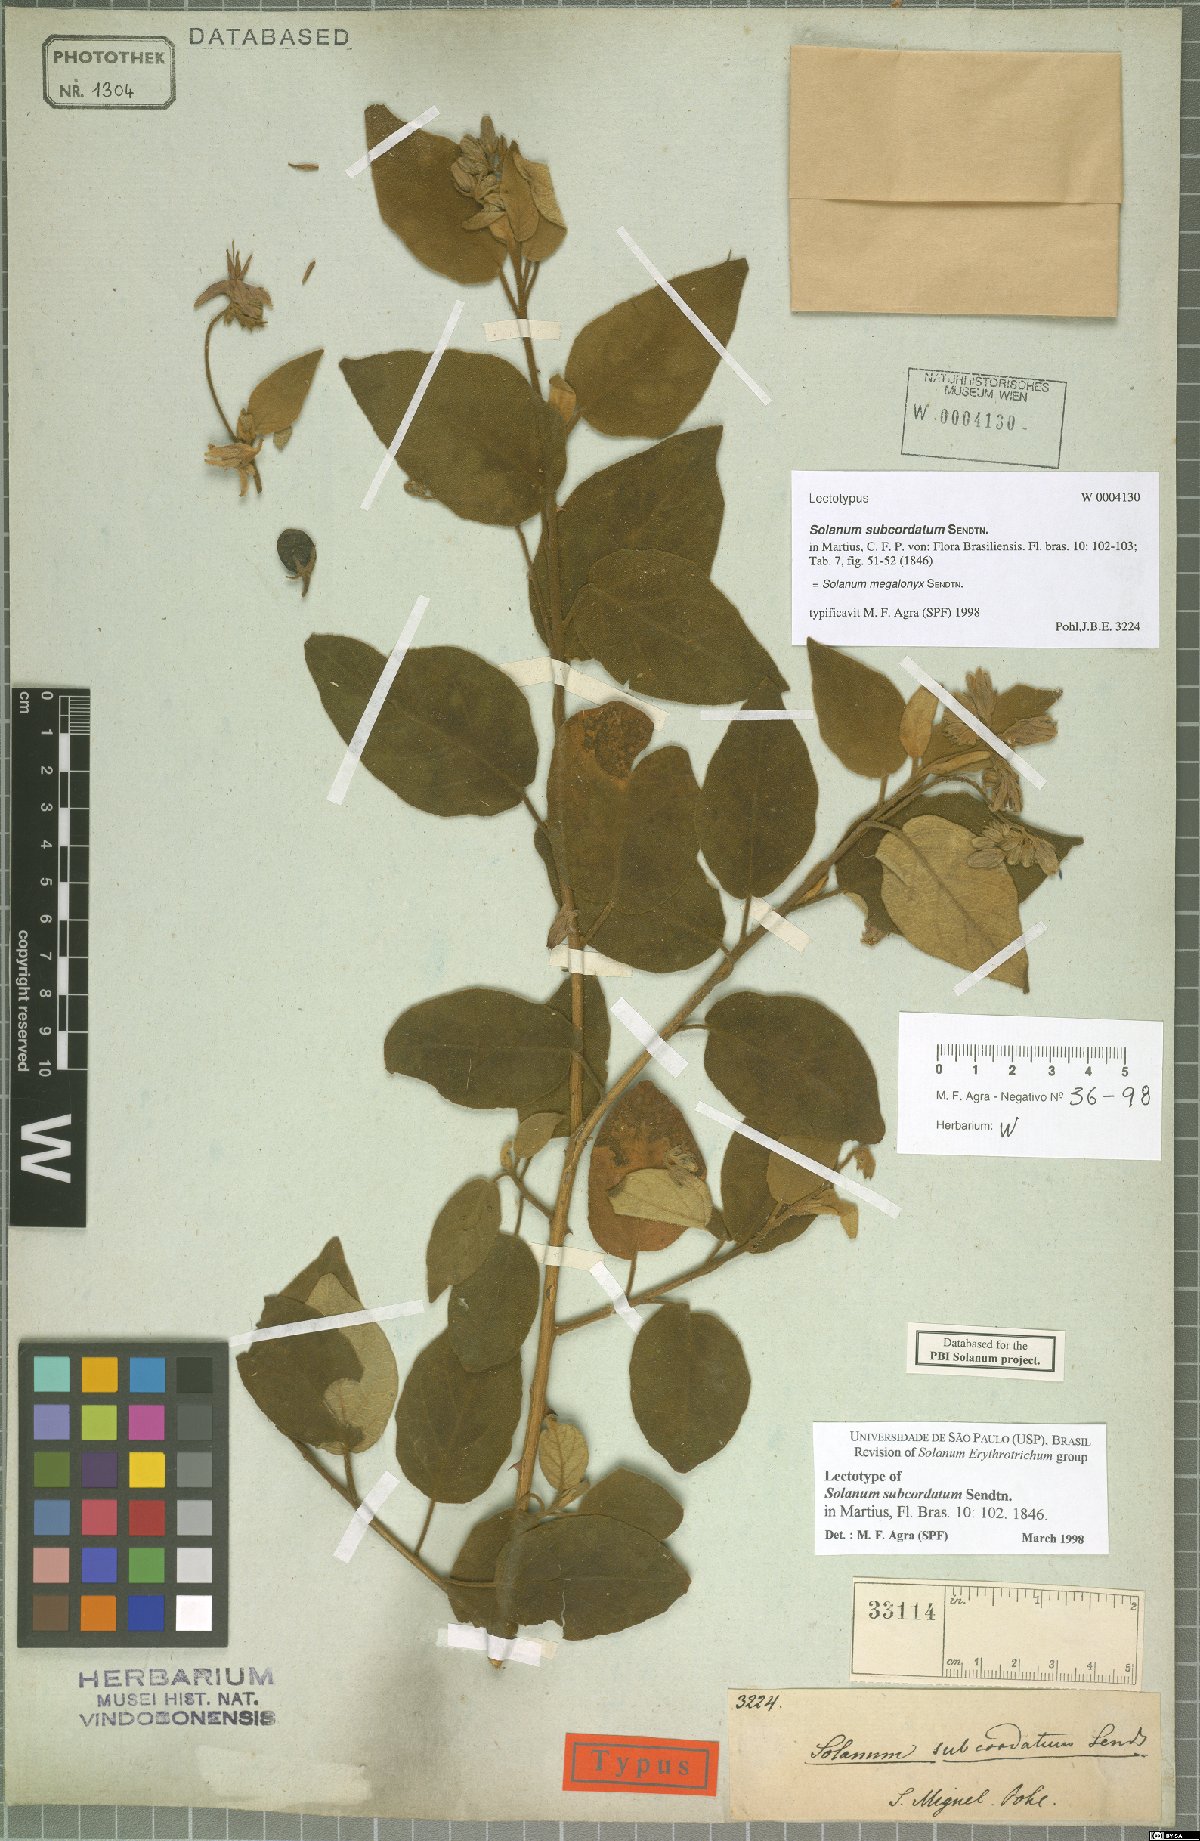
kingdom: Plantae
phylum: Tracheophyta
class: Magnoliopsida
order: Solanales
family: Solanaceae
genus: Solanum
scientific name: Solanum megalonyx
